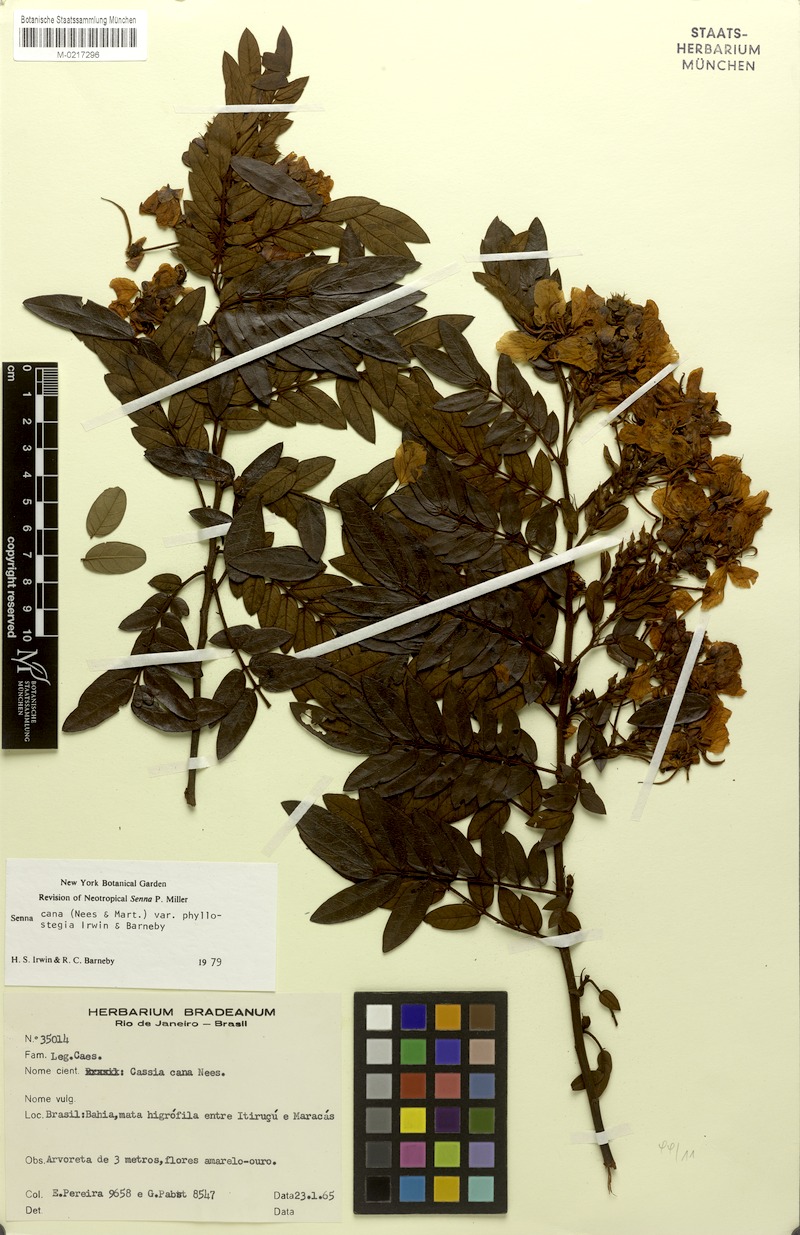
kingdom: Plantae
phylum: Tracheophyta
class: Magnoliopsida
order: Fabales
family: Fabaceae
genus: Senna
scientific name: Senna cana
